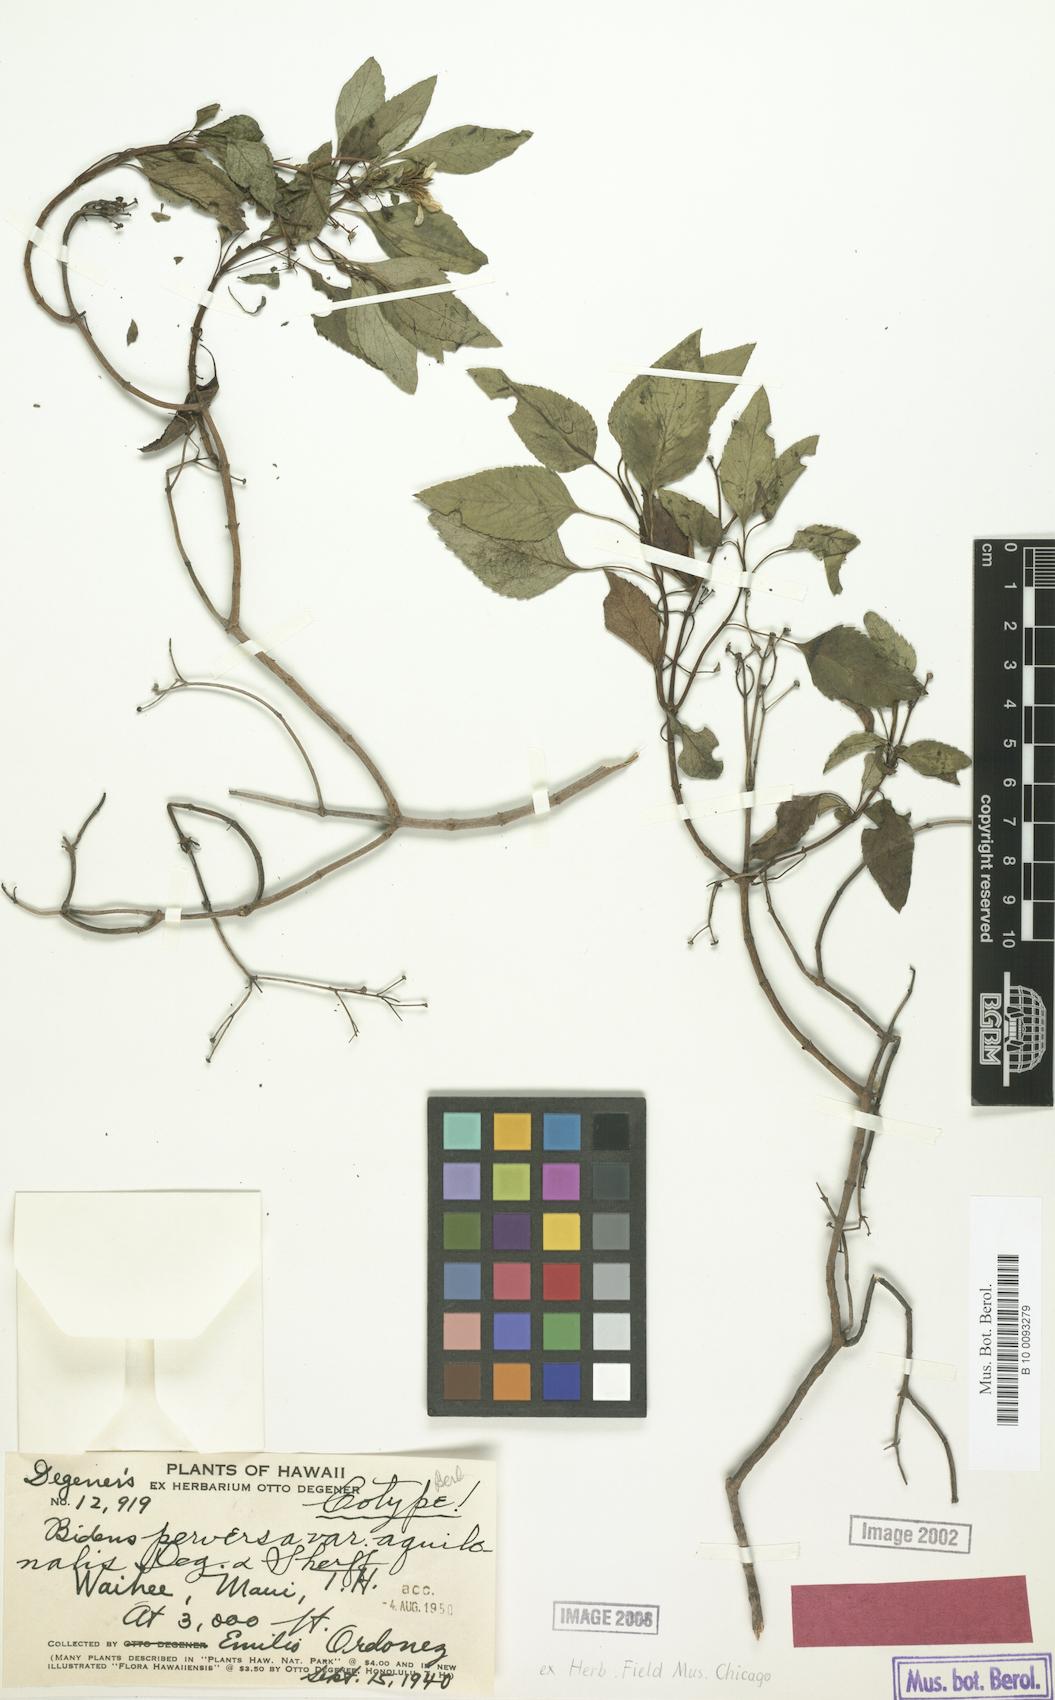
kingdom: Plantae
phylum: Tracheophyta
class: Magnoliopsida
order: Asterales
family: Asteraceae
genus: Bidens
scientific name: Bidens micrantha
